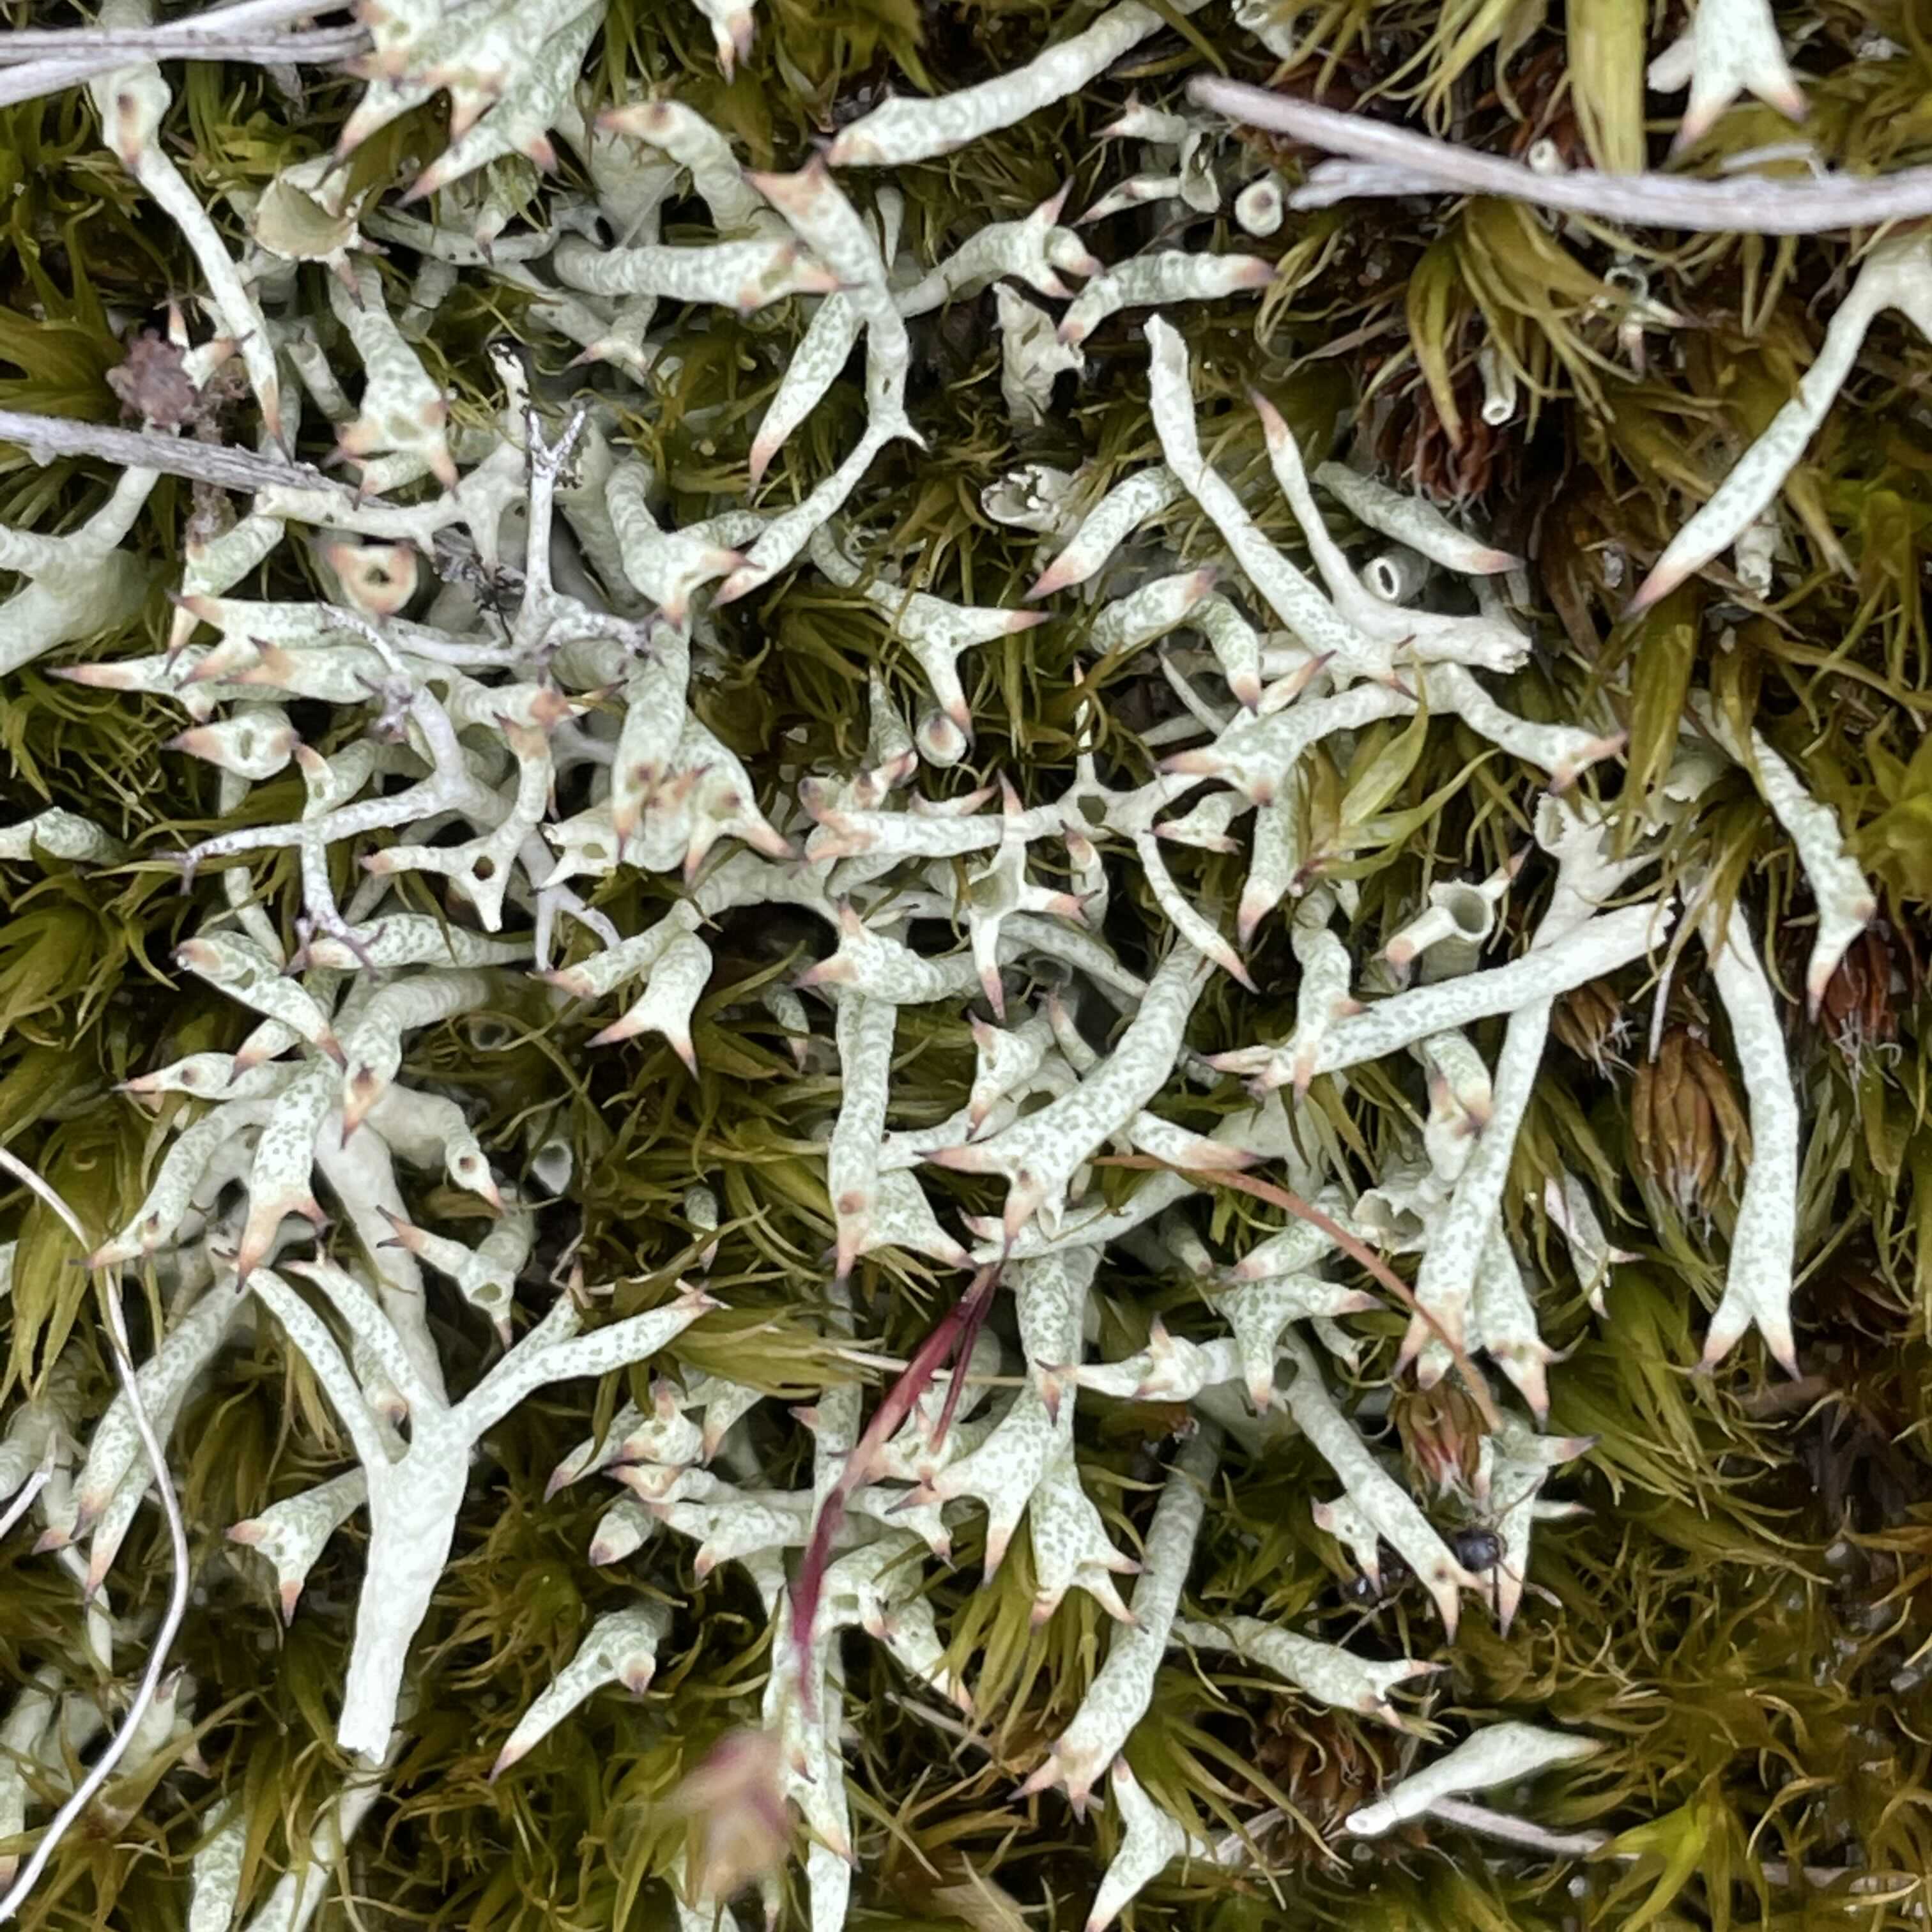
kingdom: Fungi
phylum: Ascomycota
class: Lecanoromycetes
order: Lecanorales
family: Cladoniaceae
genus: Cladonia
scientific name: Cladonia uncialis
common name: pigget bægerlav
